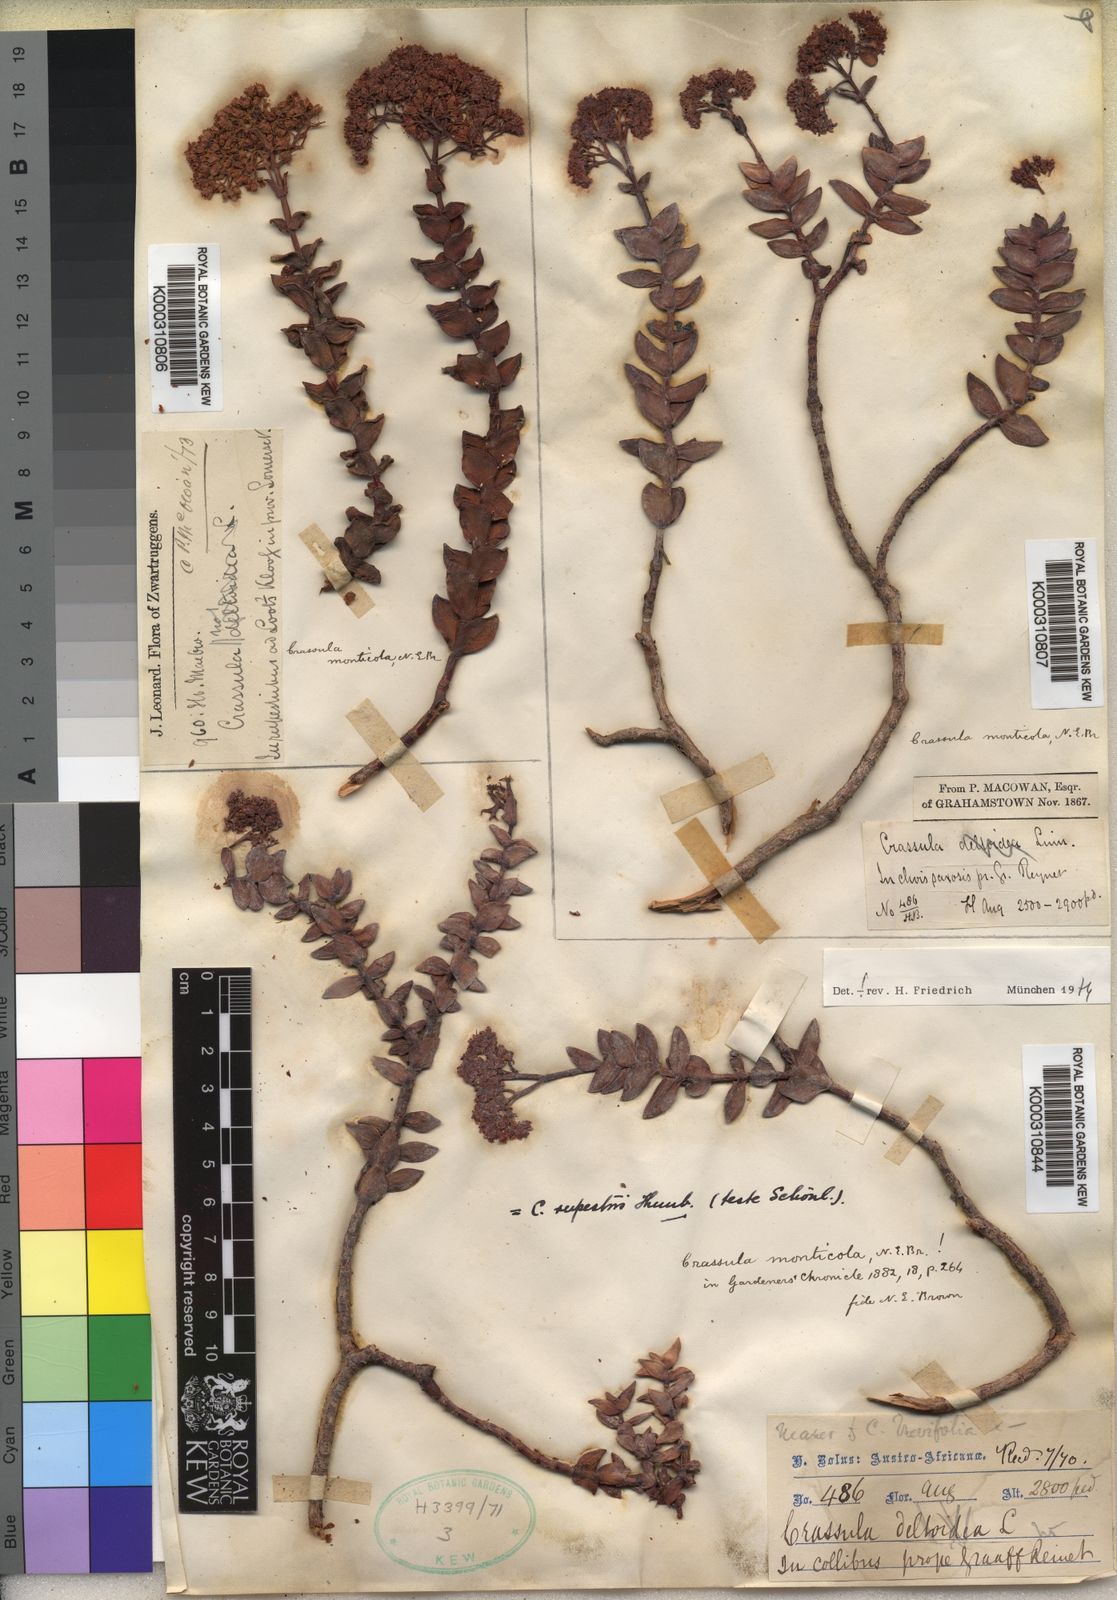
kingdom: Plantae
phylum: Tracheophyta
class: Magnoliopsida
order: Saxifragales
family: Crassulaceae
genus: Crassula
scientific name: Crassula
